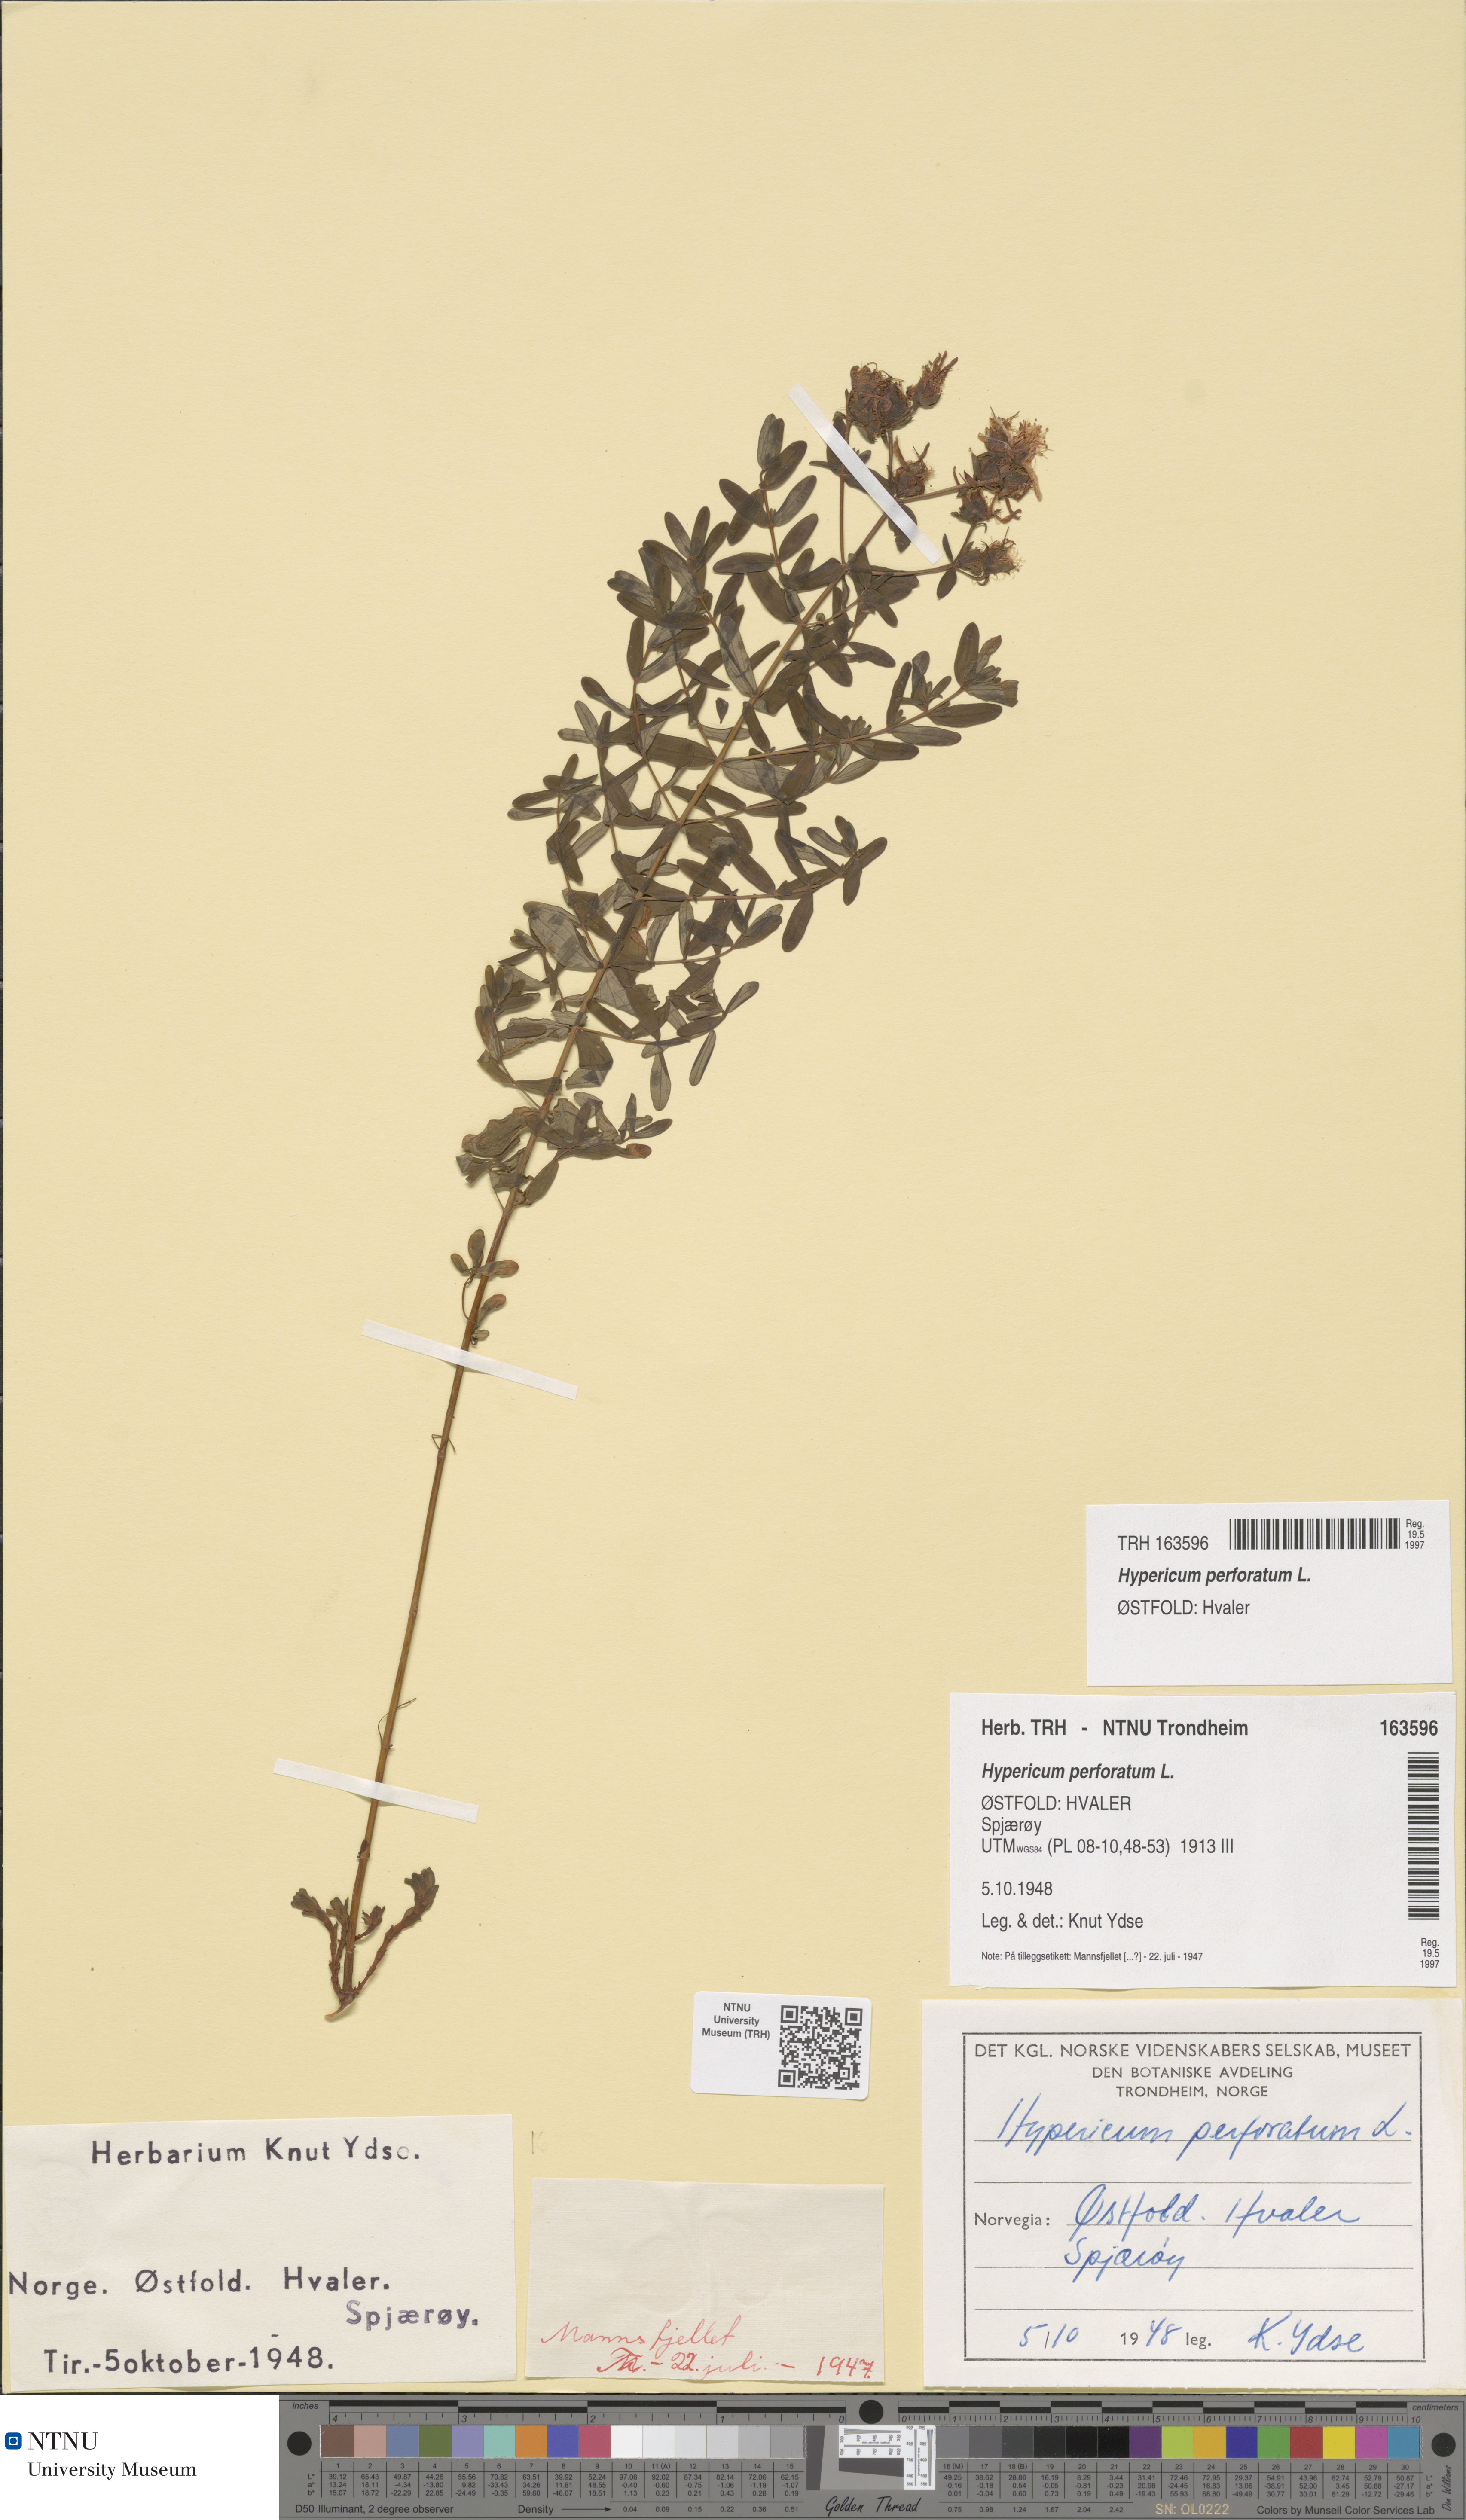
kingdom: Plantae
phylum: Tracheophyta
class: Magnoliopsida
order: Malpighiales
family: Hypericaceae
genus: Hypericum
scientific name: Hypericum perforatum
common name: Common st. johnswort
